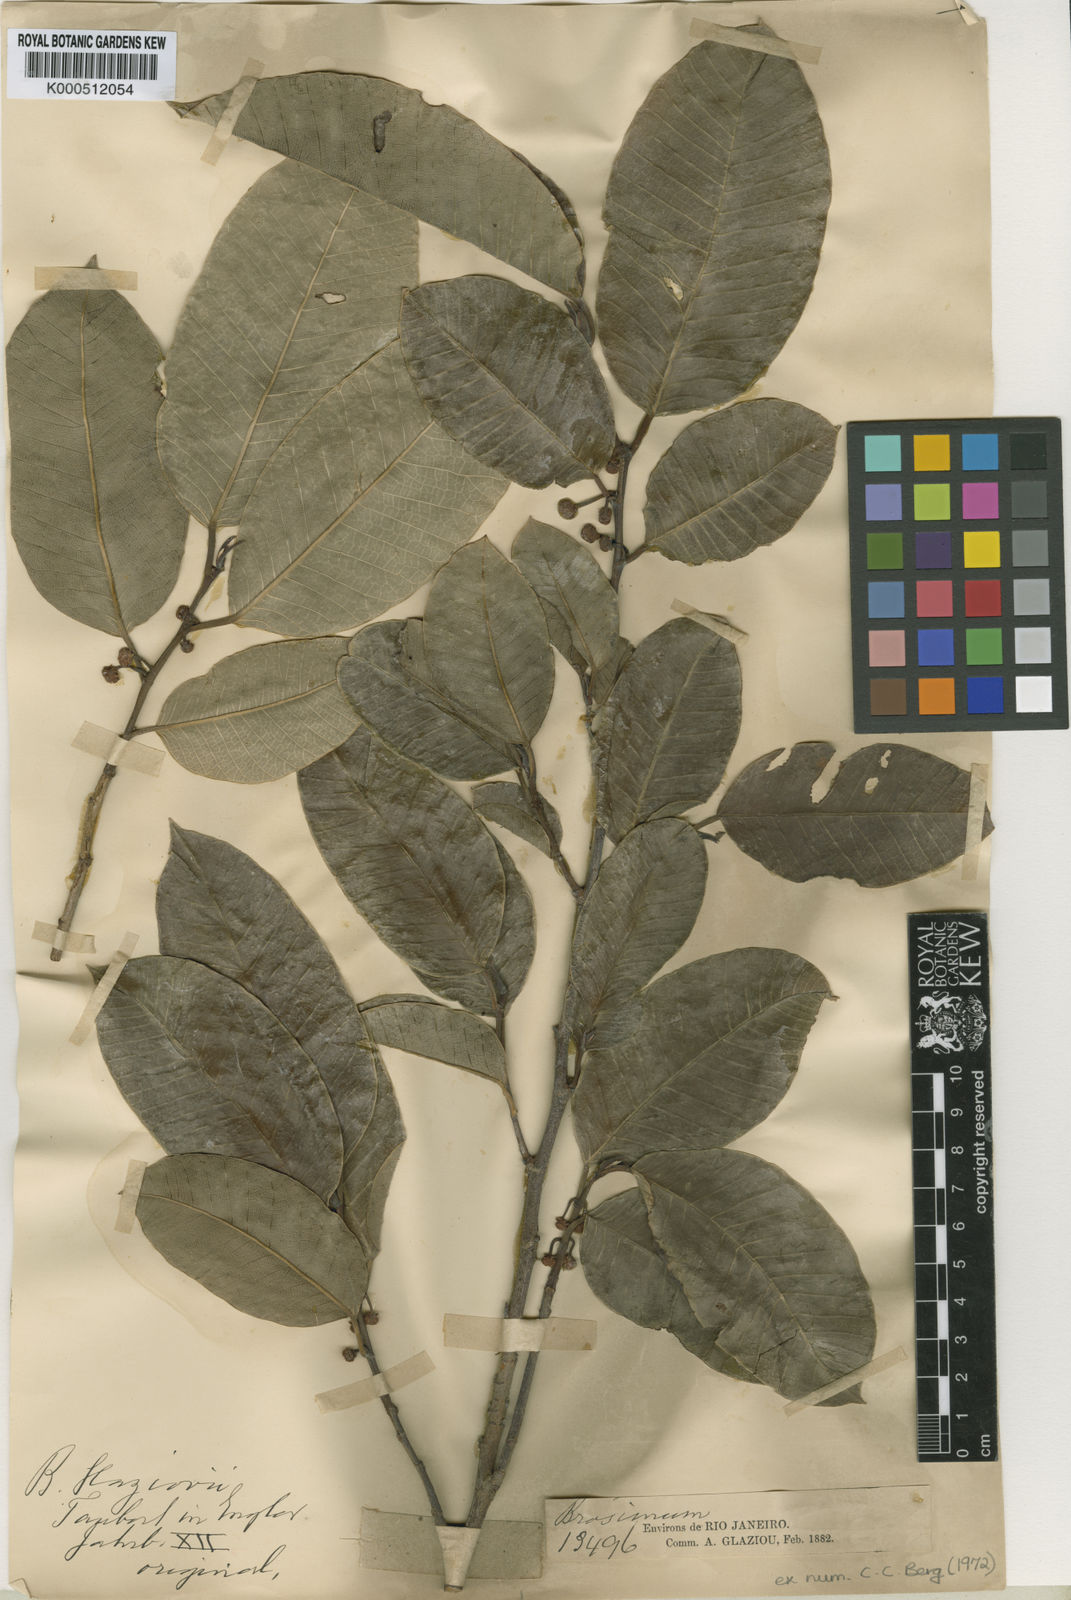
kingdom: Plantae
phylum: Tracheophyta
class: Magnoliopsida
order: Rosales
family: Moraceae
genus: Brosimum
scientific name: Brosimum glaziovii
